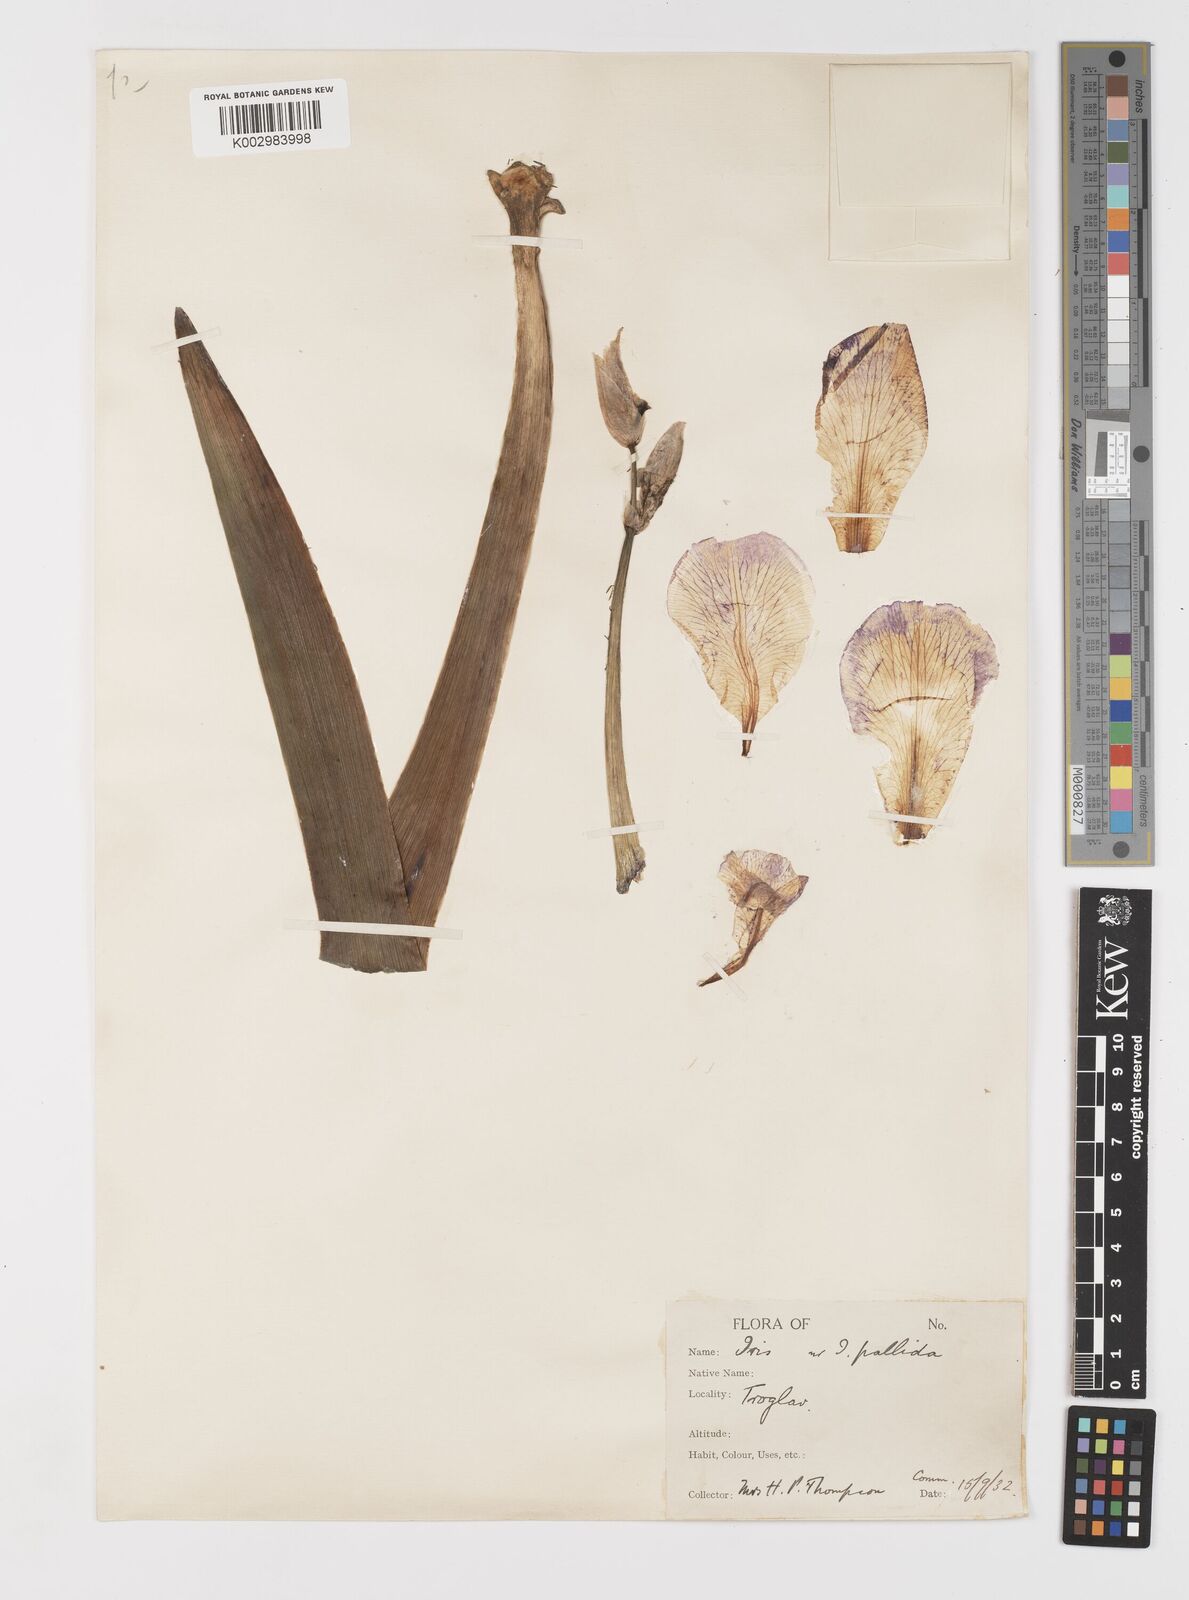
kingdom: Plantae
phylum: Tracheophyta
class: Liliopsida
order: Asparagales
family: Iridaceae
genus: Iris
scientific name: Iris halophila
